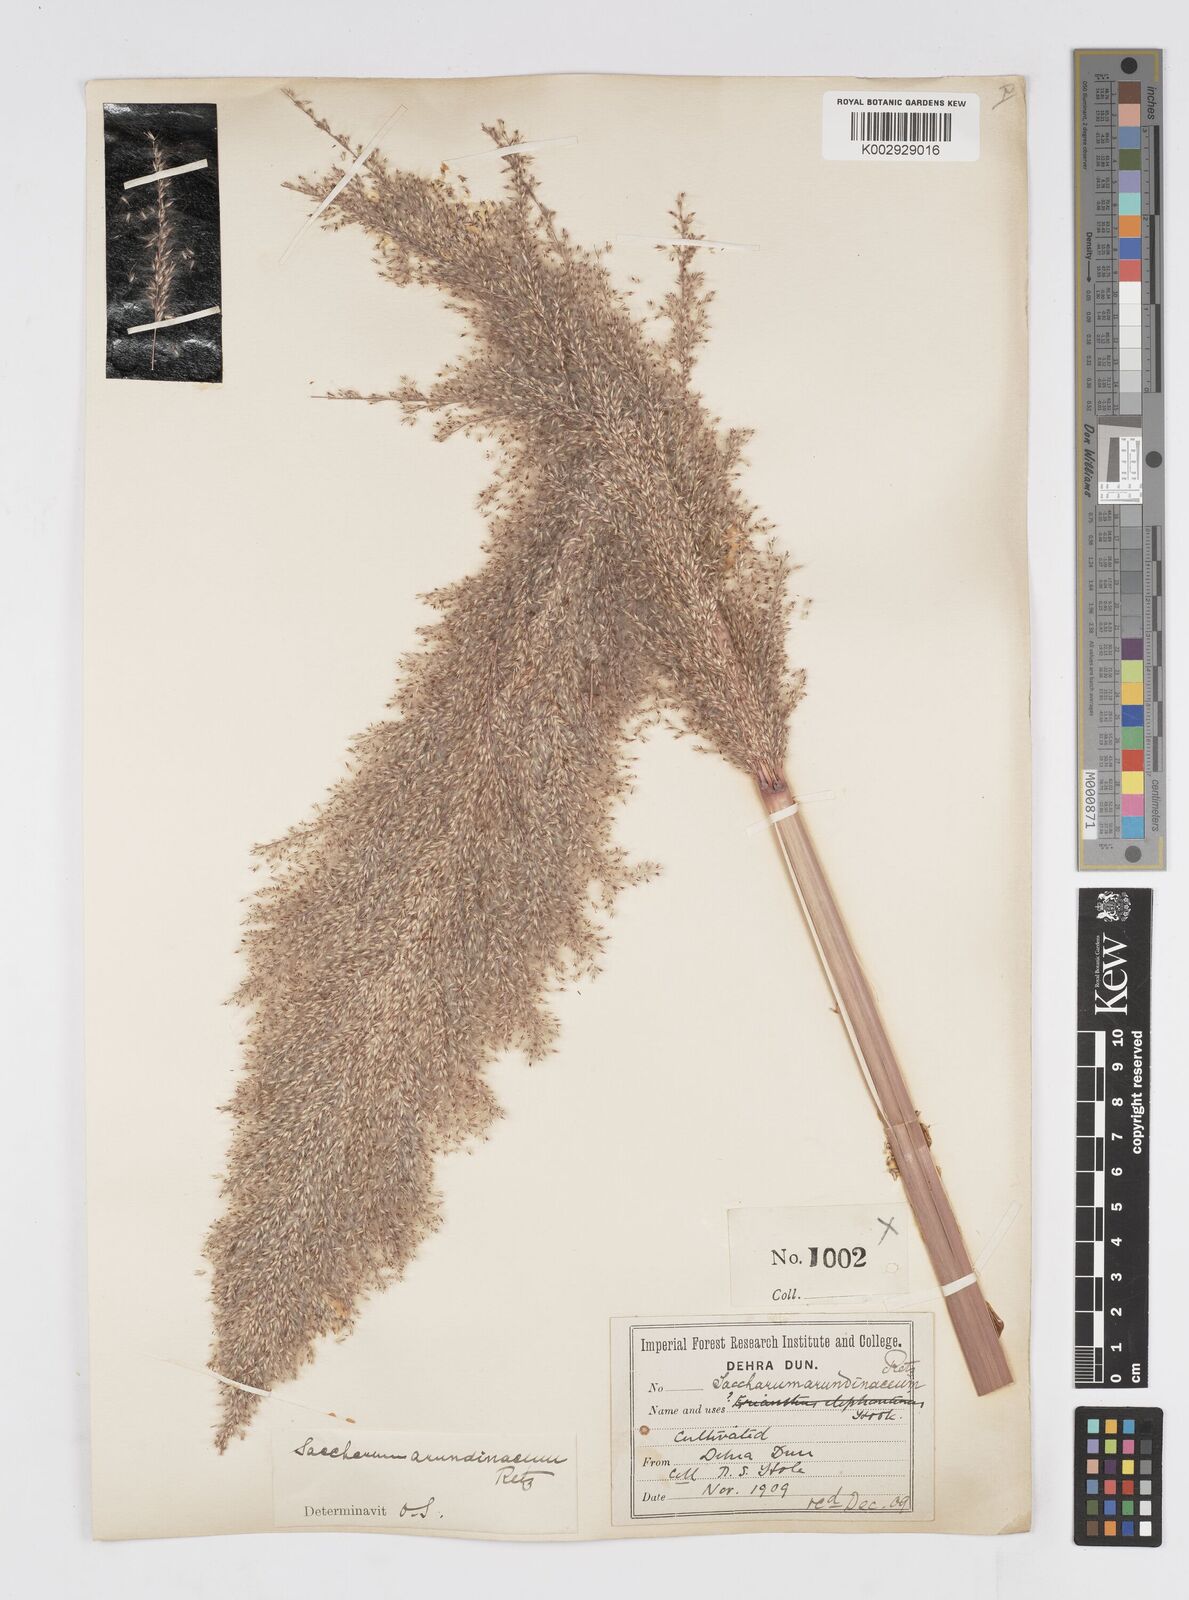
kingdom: Plantae
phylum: Tracheophyta
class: Liliopsida
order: Poales
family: Poaceae
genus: Tripidium
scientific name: Tripidium arundinaceum
